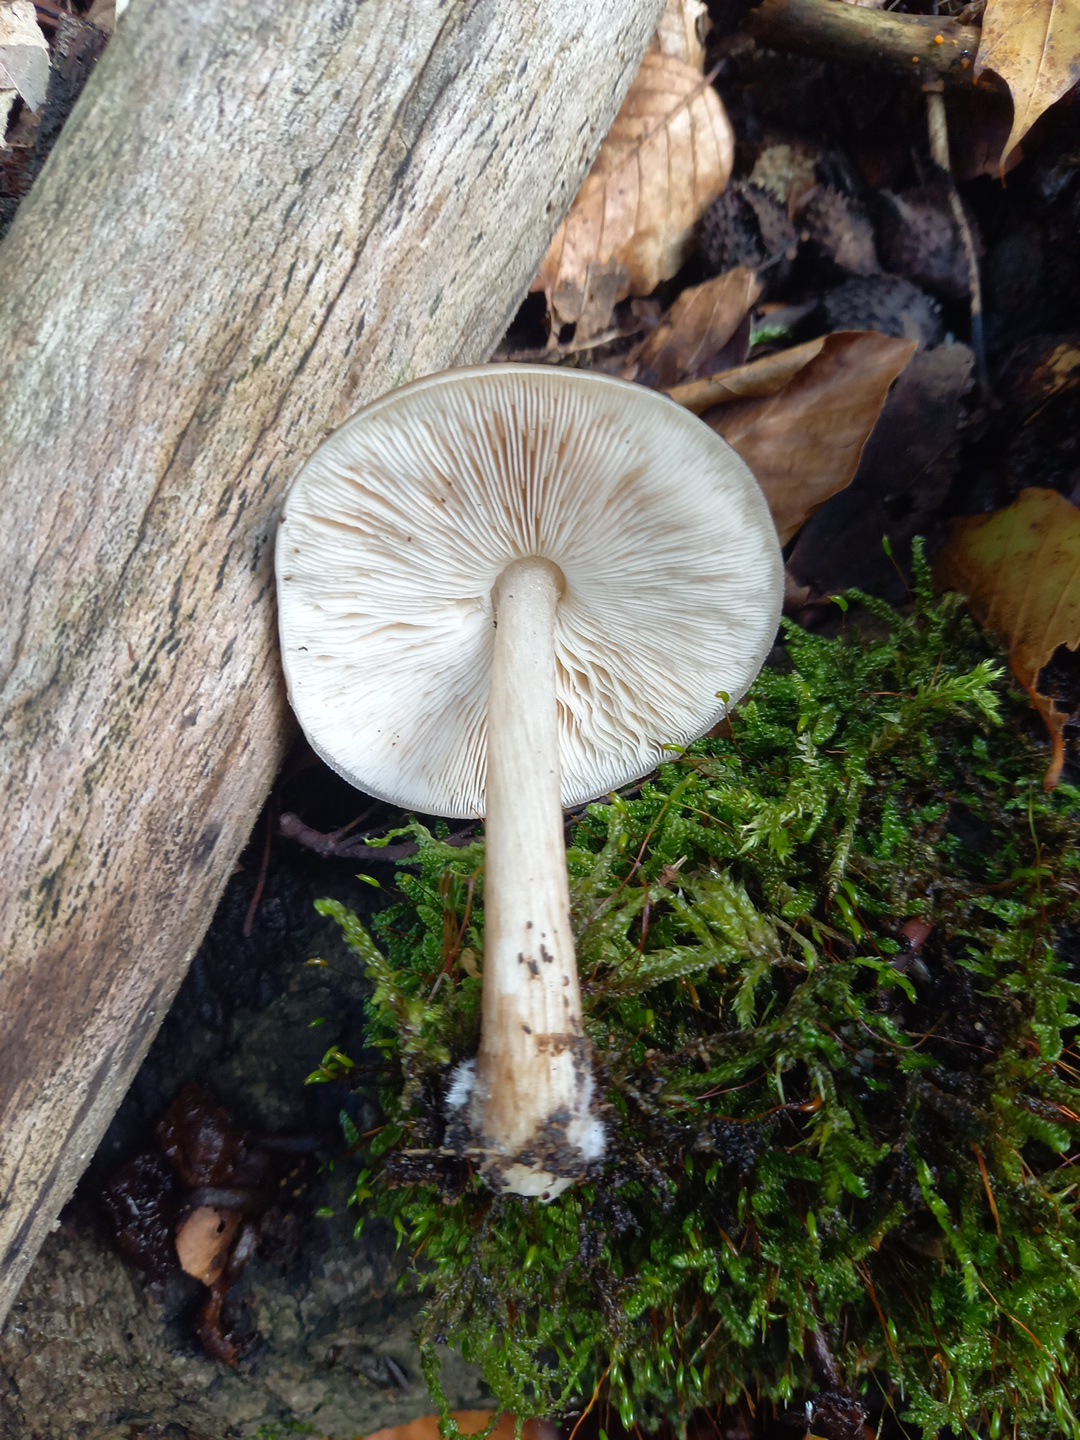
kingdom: Fungi
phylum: Basidiomycota
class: Agaricomycetes
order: Agaricales
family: Pluteaceae
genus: Pluteus
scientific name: Pluteus cervinus
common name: sodfarvet skærmhat
